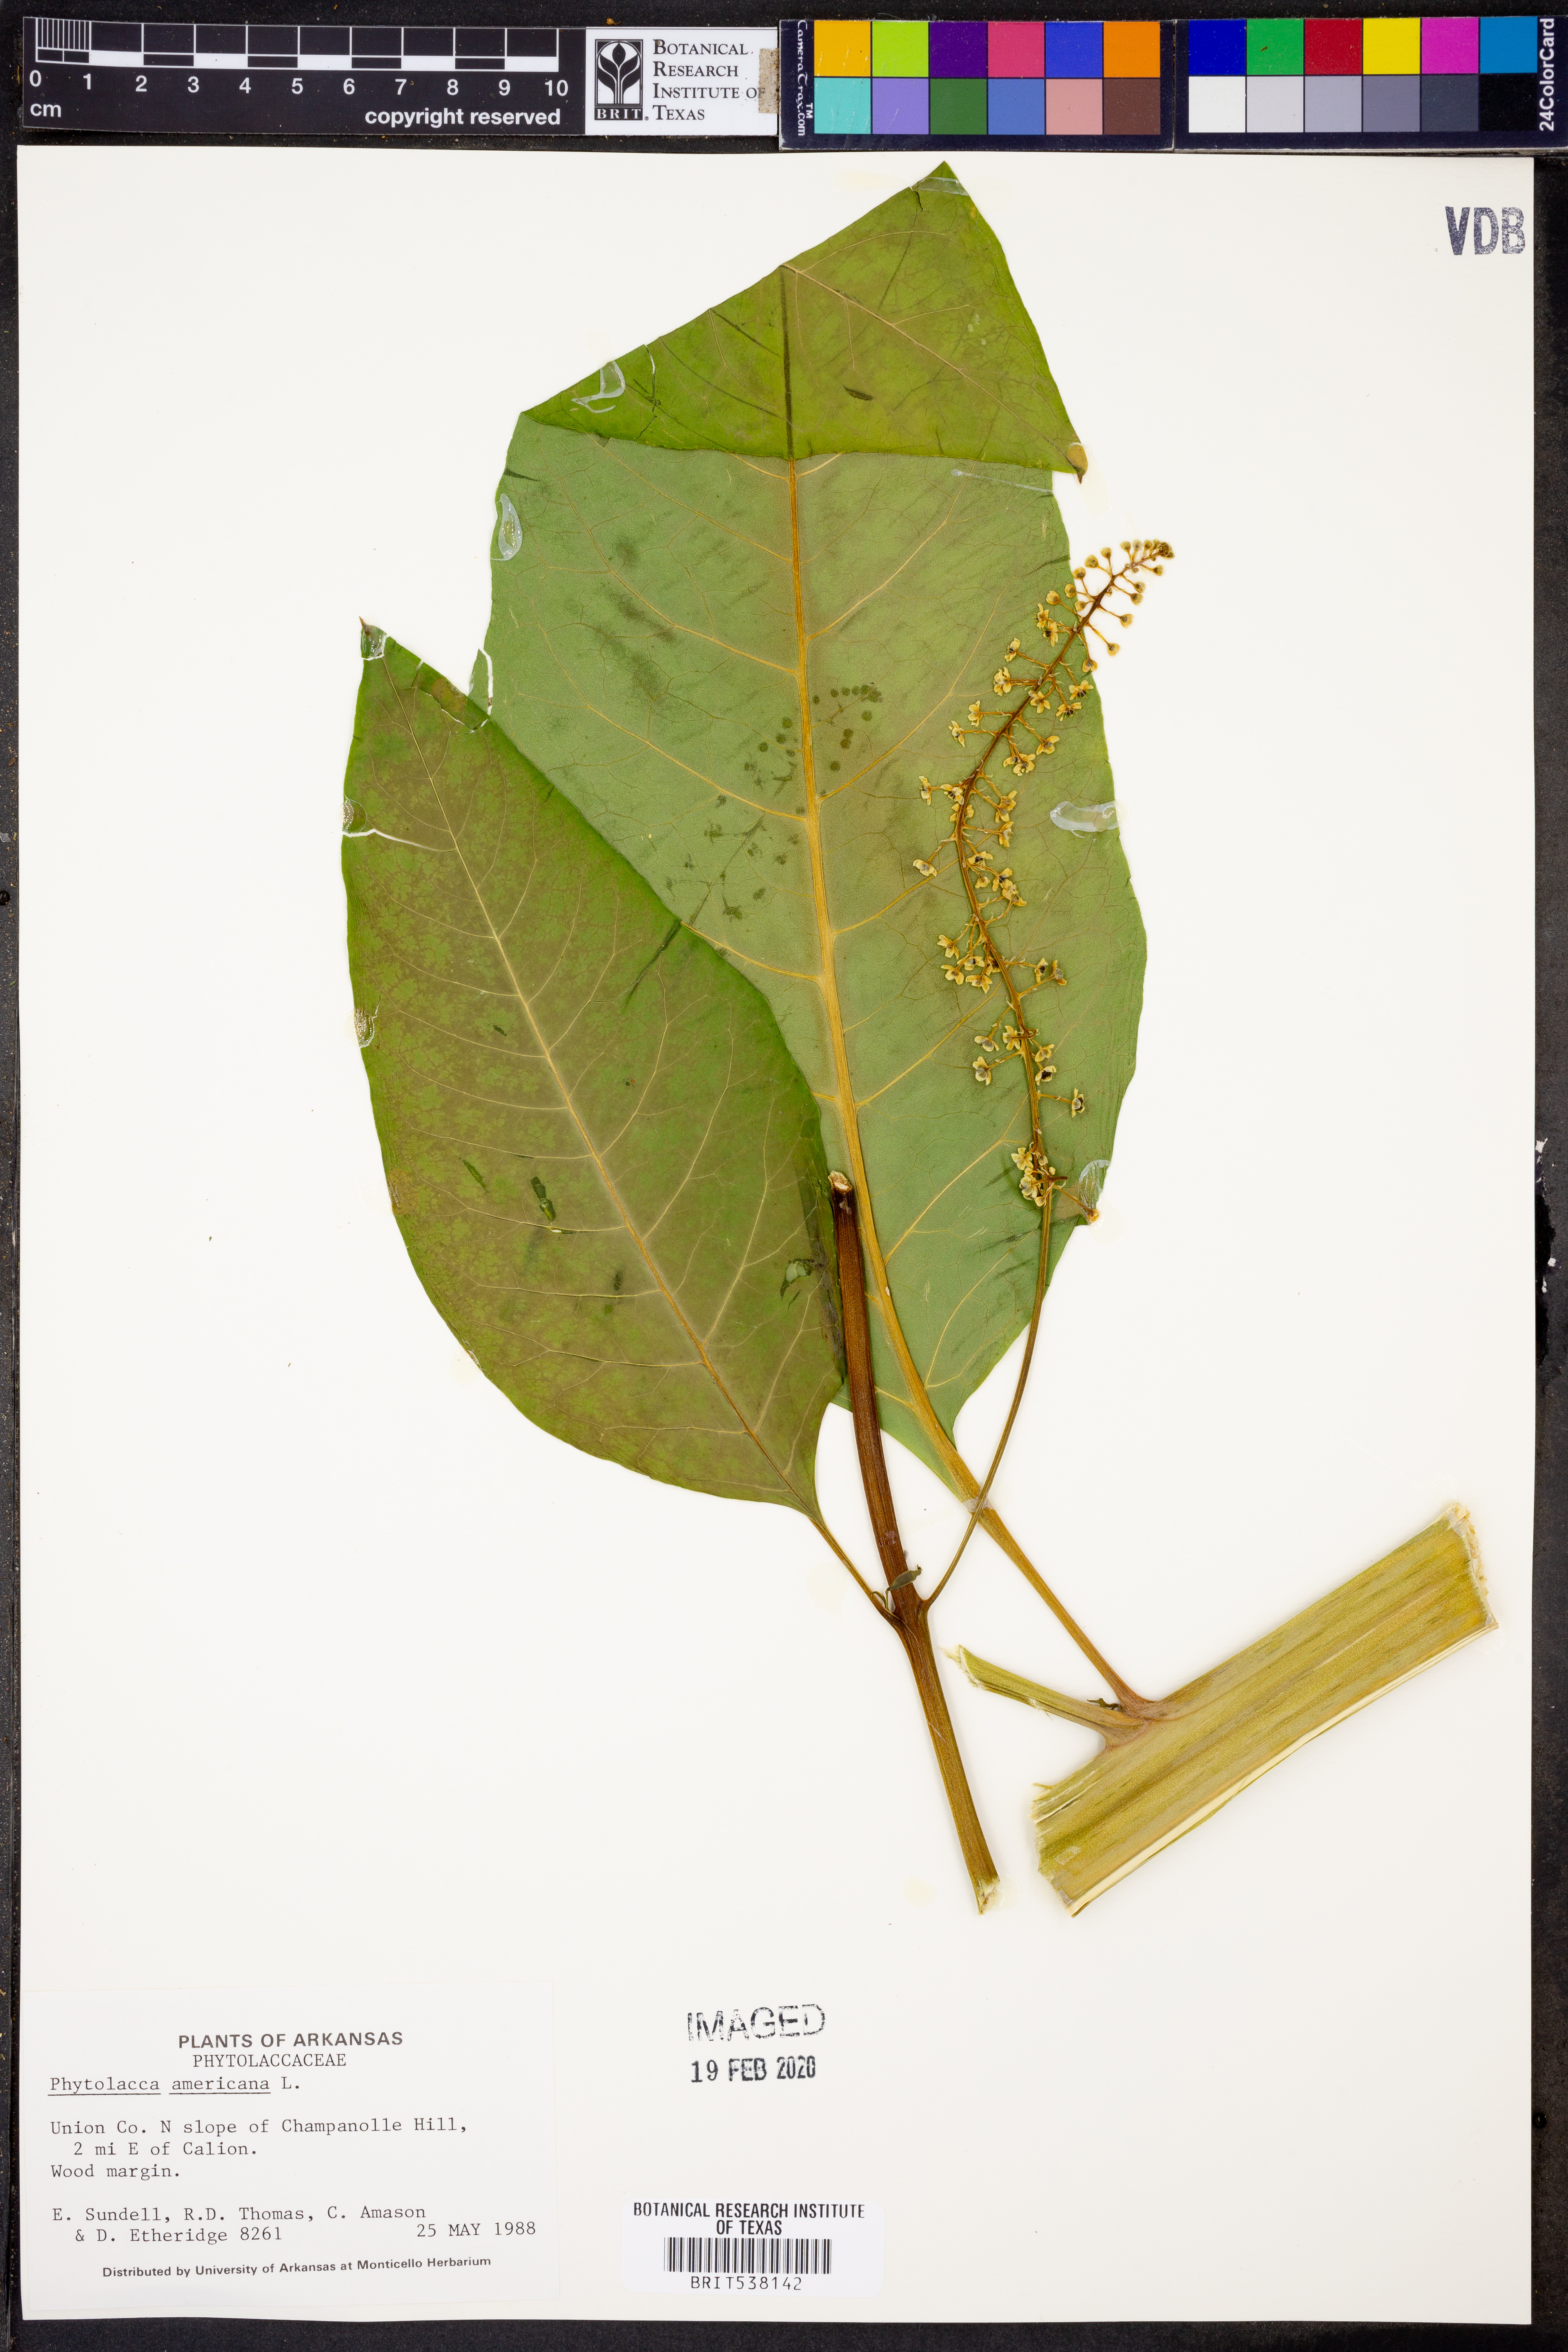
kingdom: Plantae
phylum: Tracheophyta
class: Magnoliopsida
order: Caryophyllales
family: Phytolaccaceae
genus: Phytolacca
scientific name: Phytolacca americana
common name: American pokeweed
